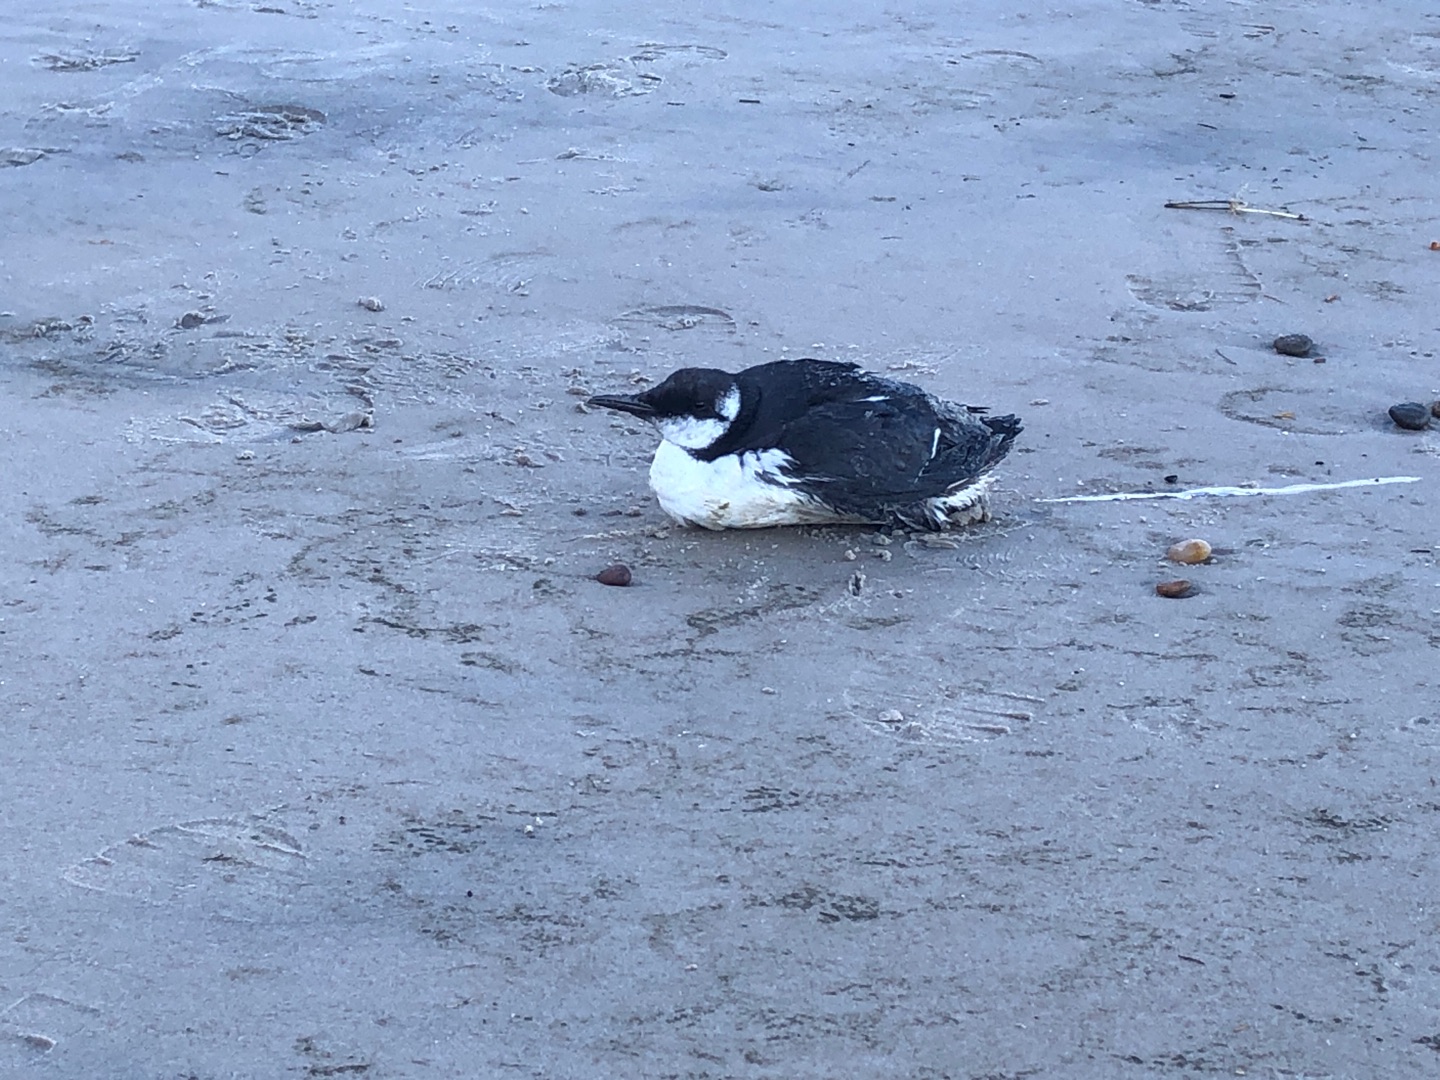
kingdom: Animalia
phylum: Chordata
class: Aves
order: Charadriiformes
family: Alcidae
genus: Uria
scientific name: Uria aalge
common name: Lomvie
